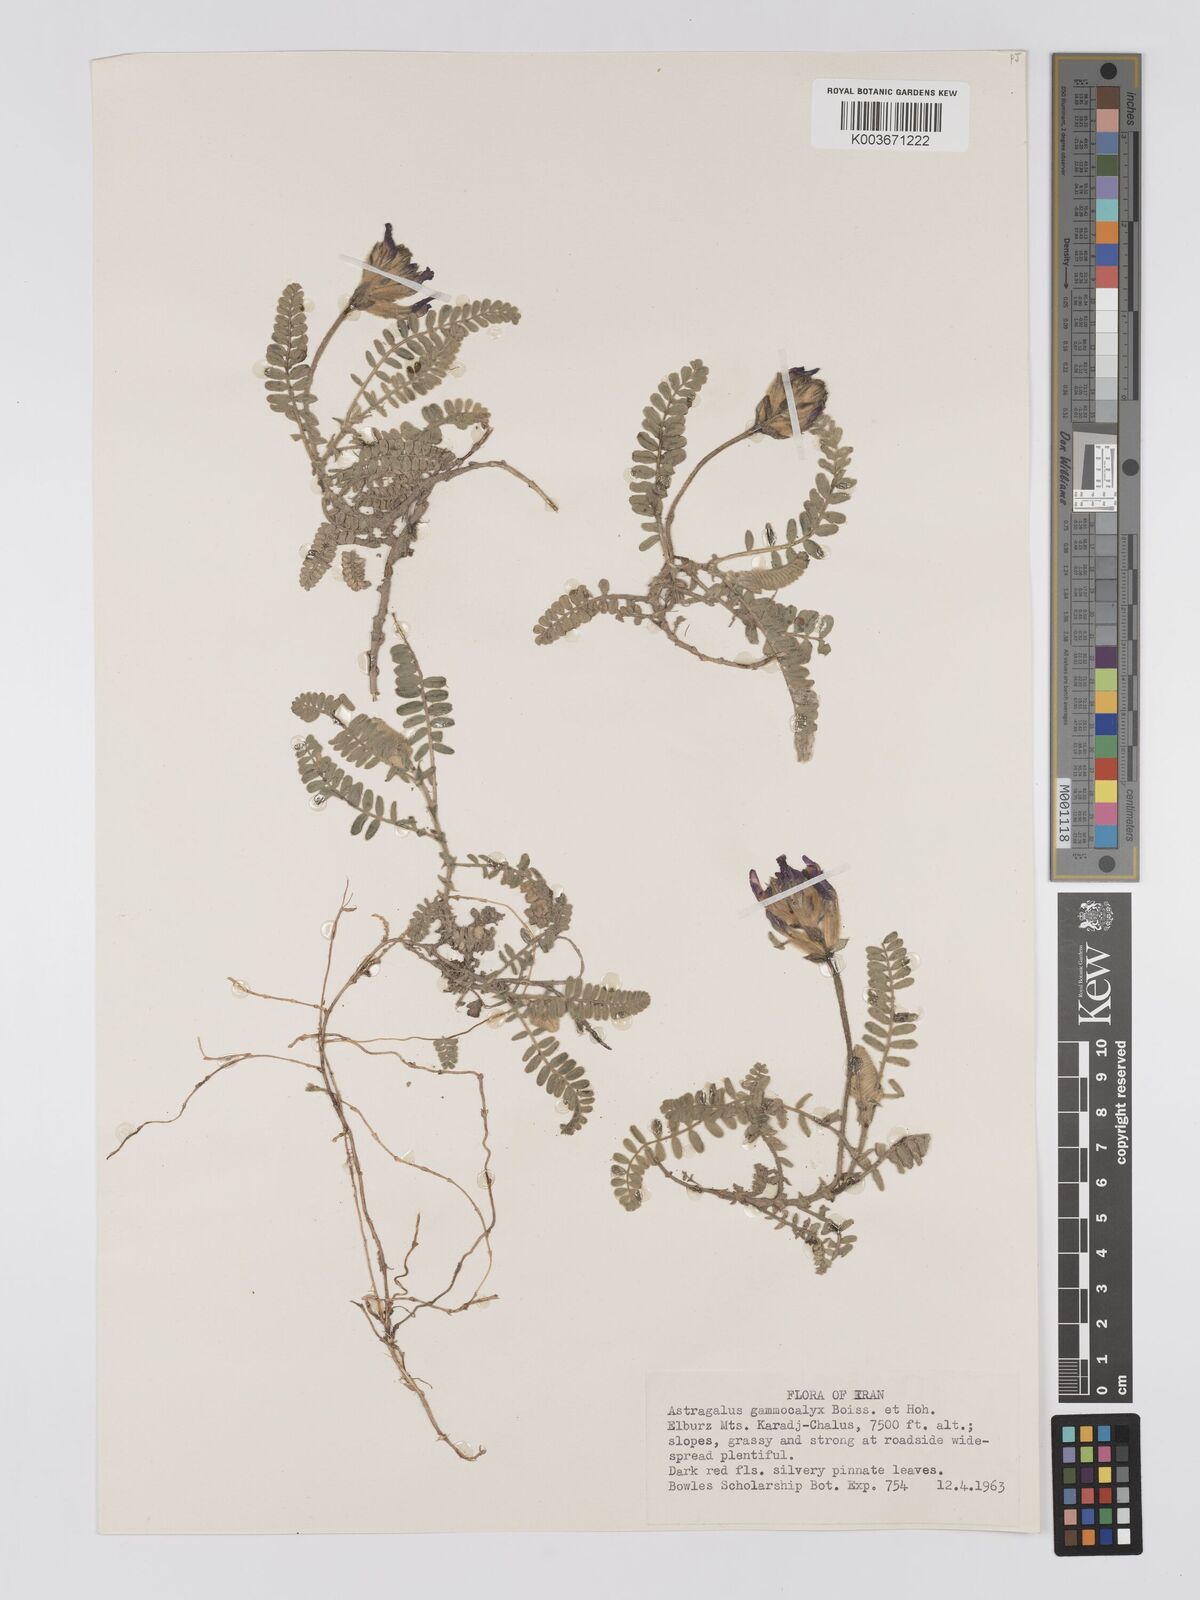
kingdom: Plantae
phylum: Tracheophyta
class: Magnoliopsida
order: Fabales
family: Fabaceae
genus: Astragalus
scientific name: Astragalus lineatus
